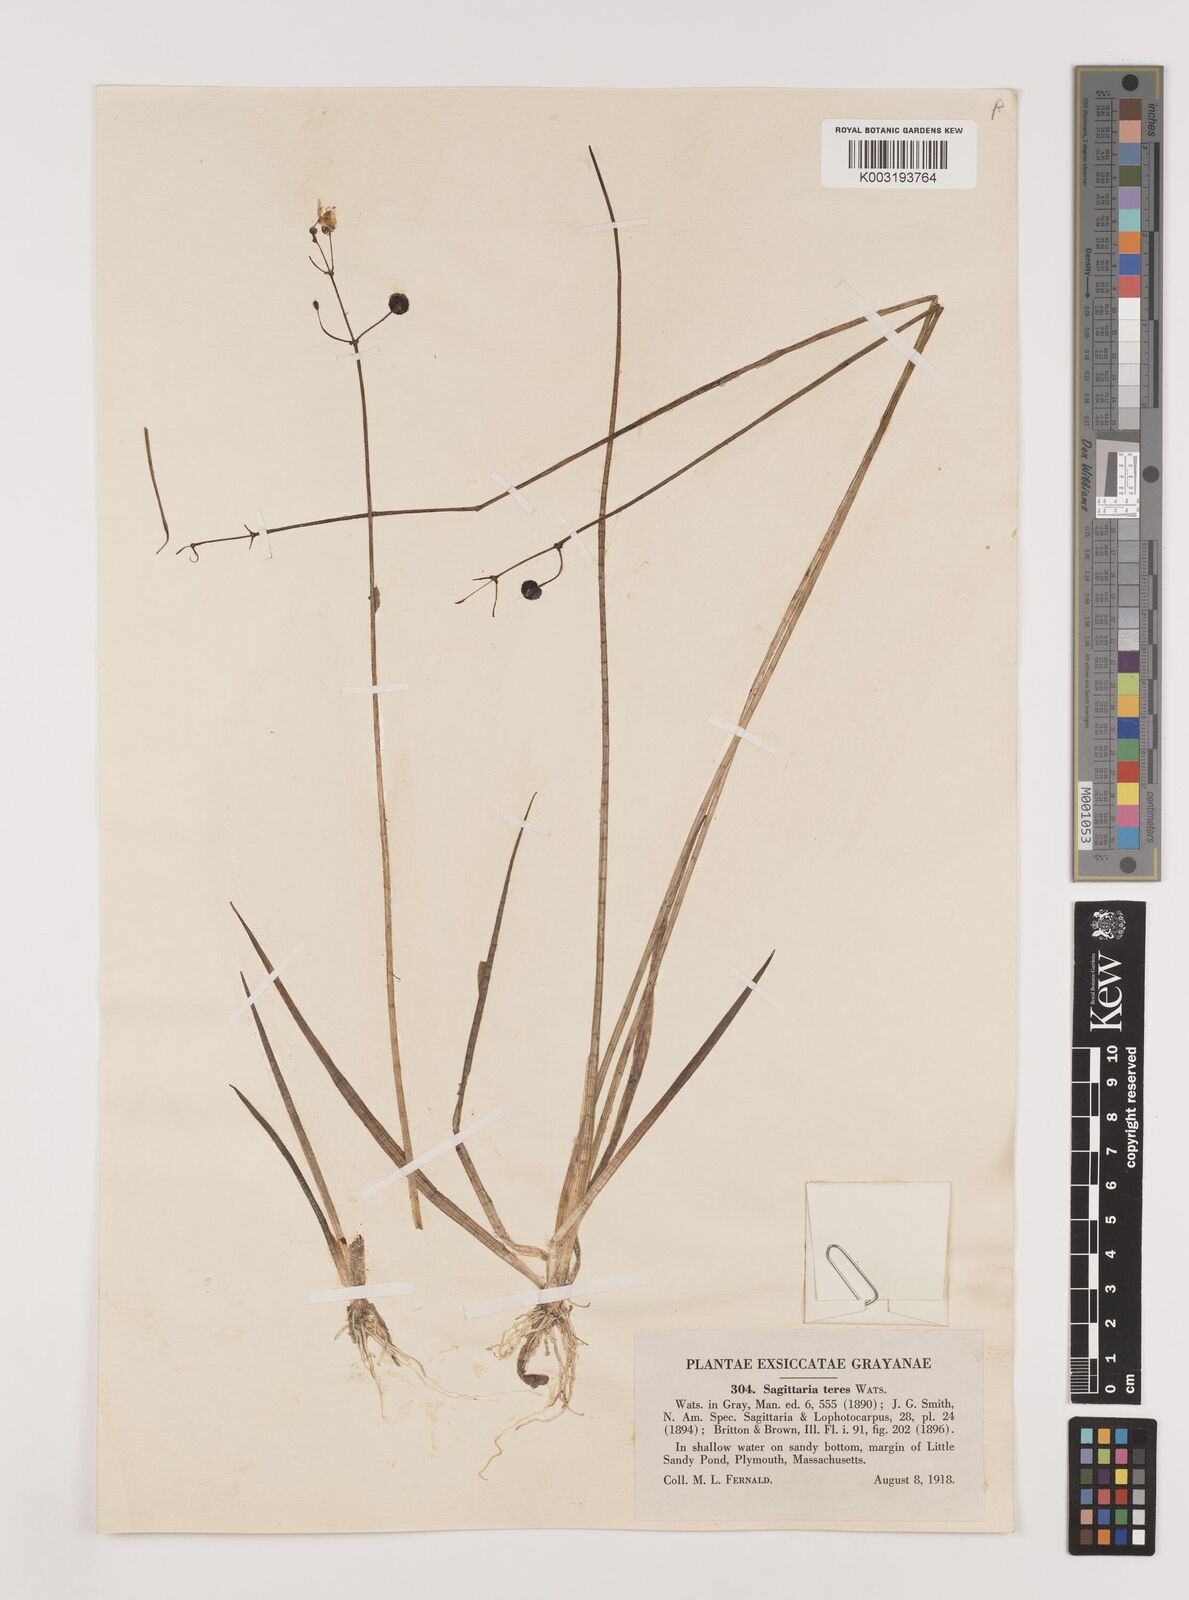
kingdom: Plantae
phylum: Tracheophyta
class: Liliopsida
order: Alismatales
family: Alismataceae
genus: Sagittaria
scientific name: Sagittaria teres
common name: Quill-leaf sagittaria
